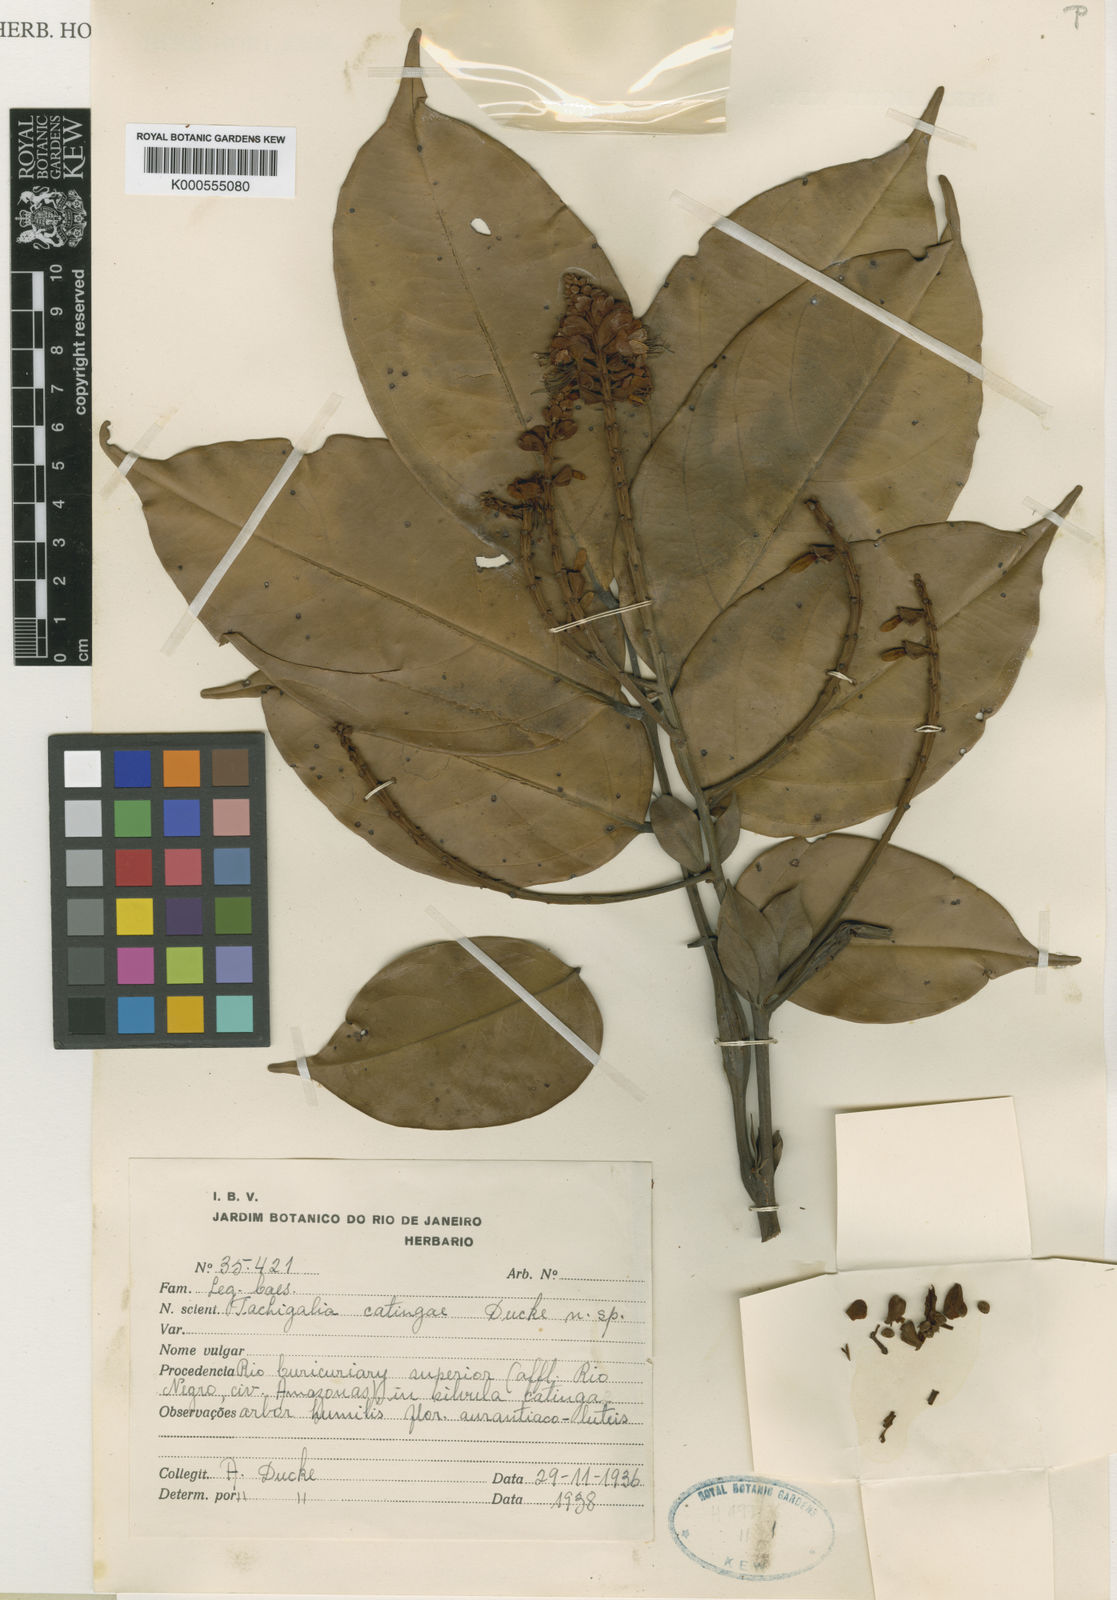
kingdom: Plantae
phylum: Tracheophyta
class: Magnoliopsida
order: Fabales
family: Fabaceae
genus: Tachigali
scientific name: Tachigali catingae
